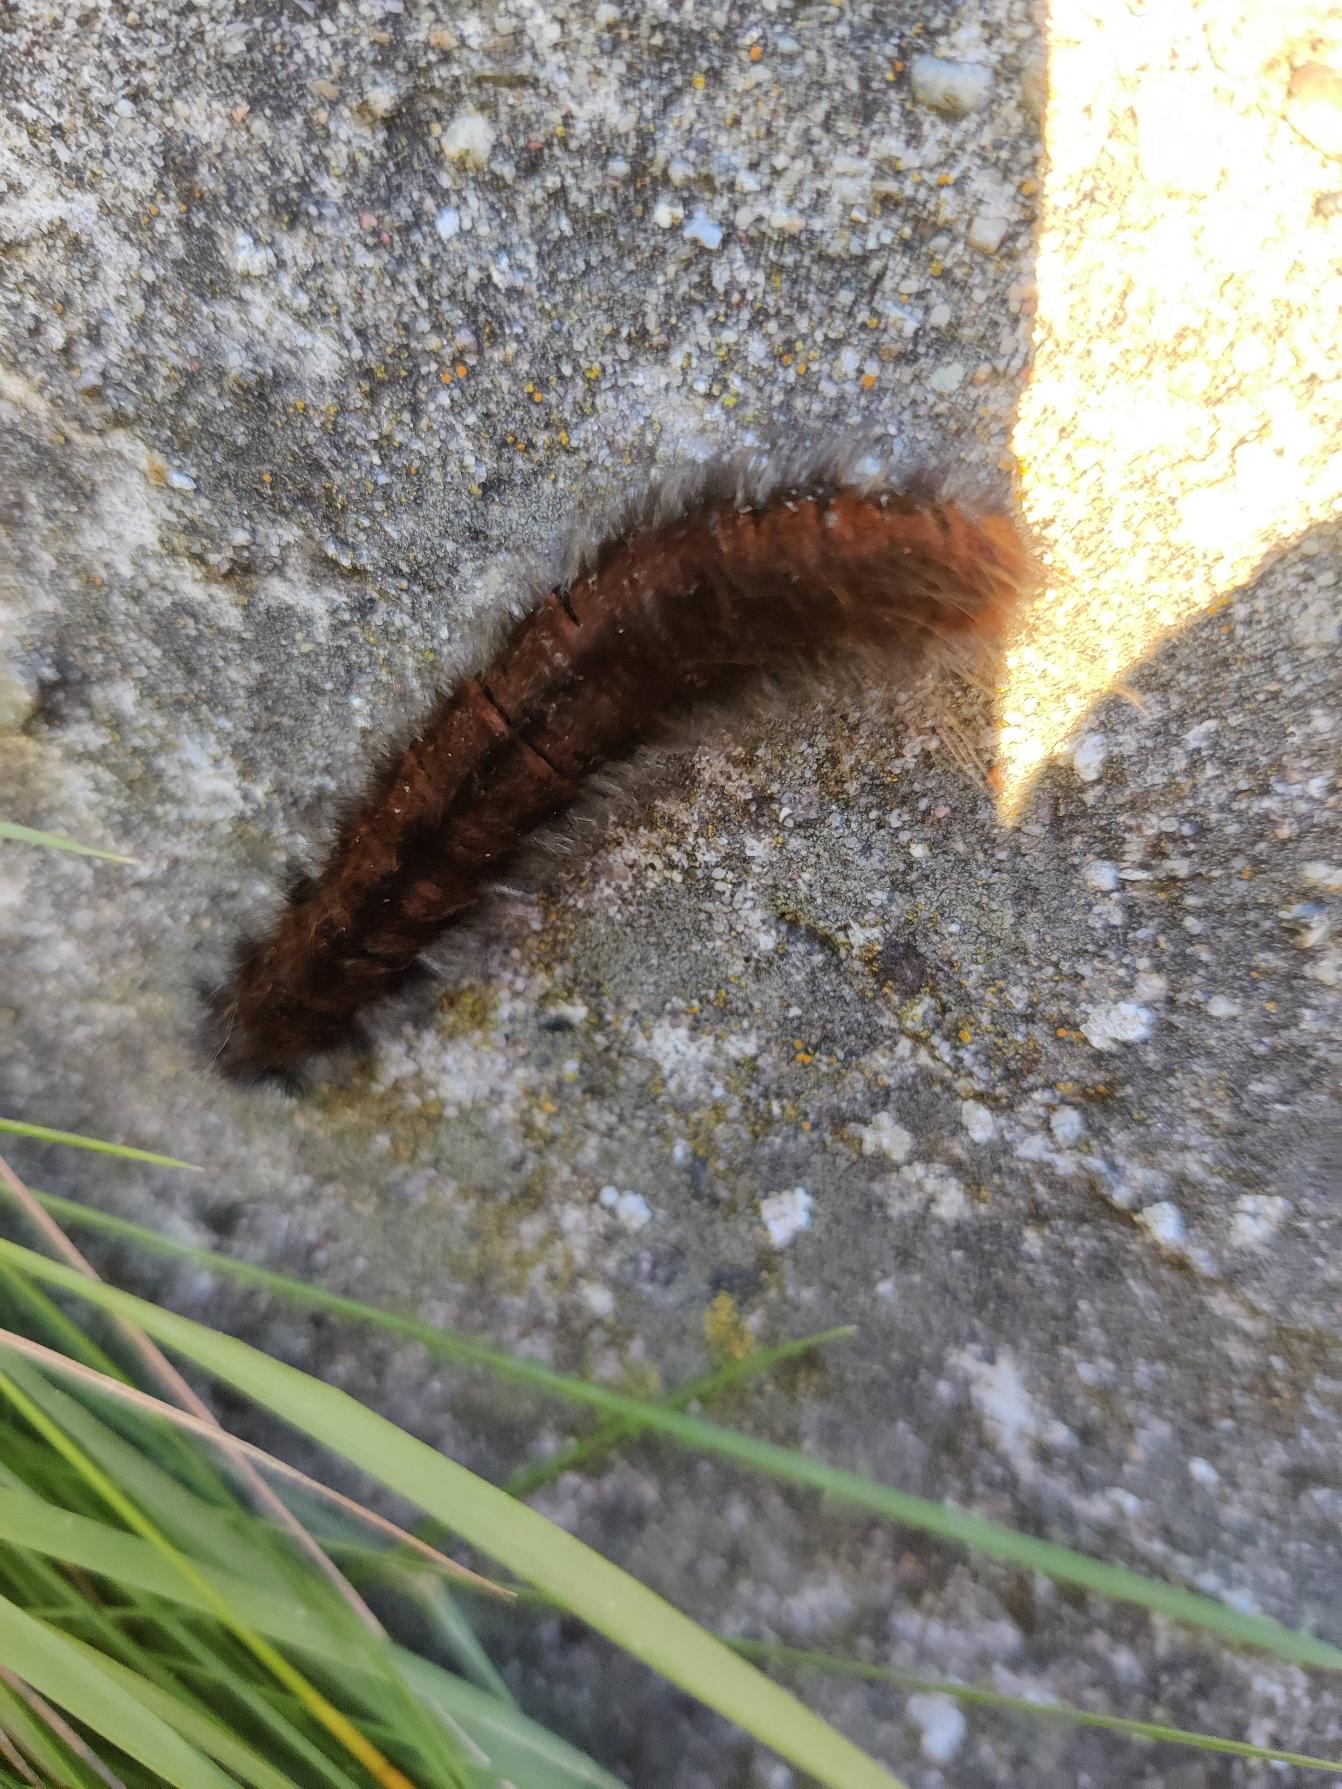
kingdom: Animalia
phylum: Arthropoda
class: Insecta
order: Lepidoptera
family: Lasiocampidae
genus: Macrothylacia
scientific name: Macrothylacia rubi
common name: Brombærspinder
